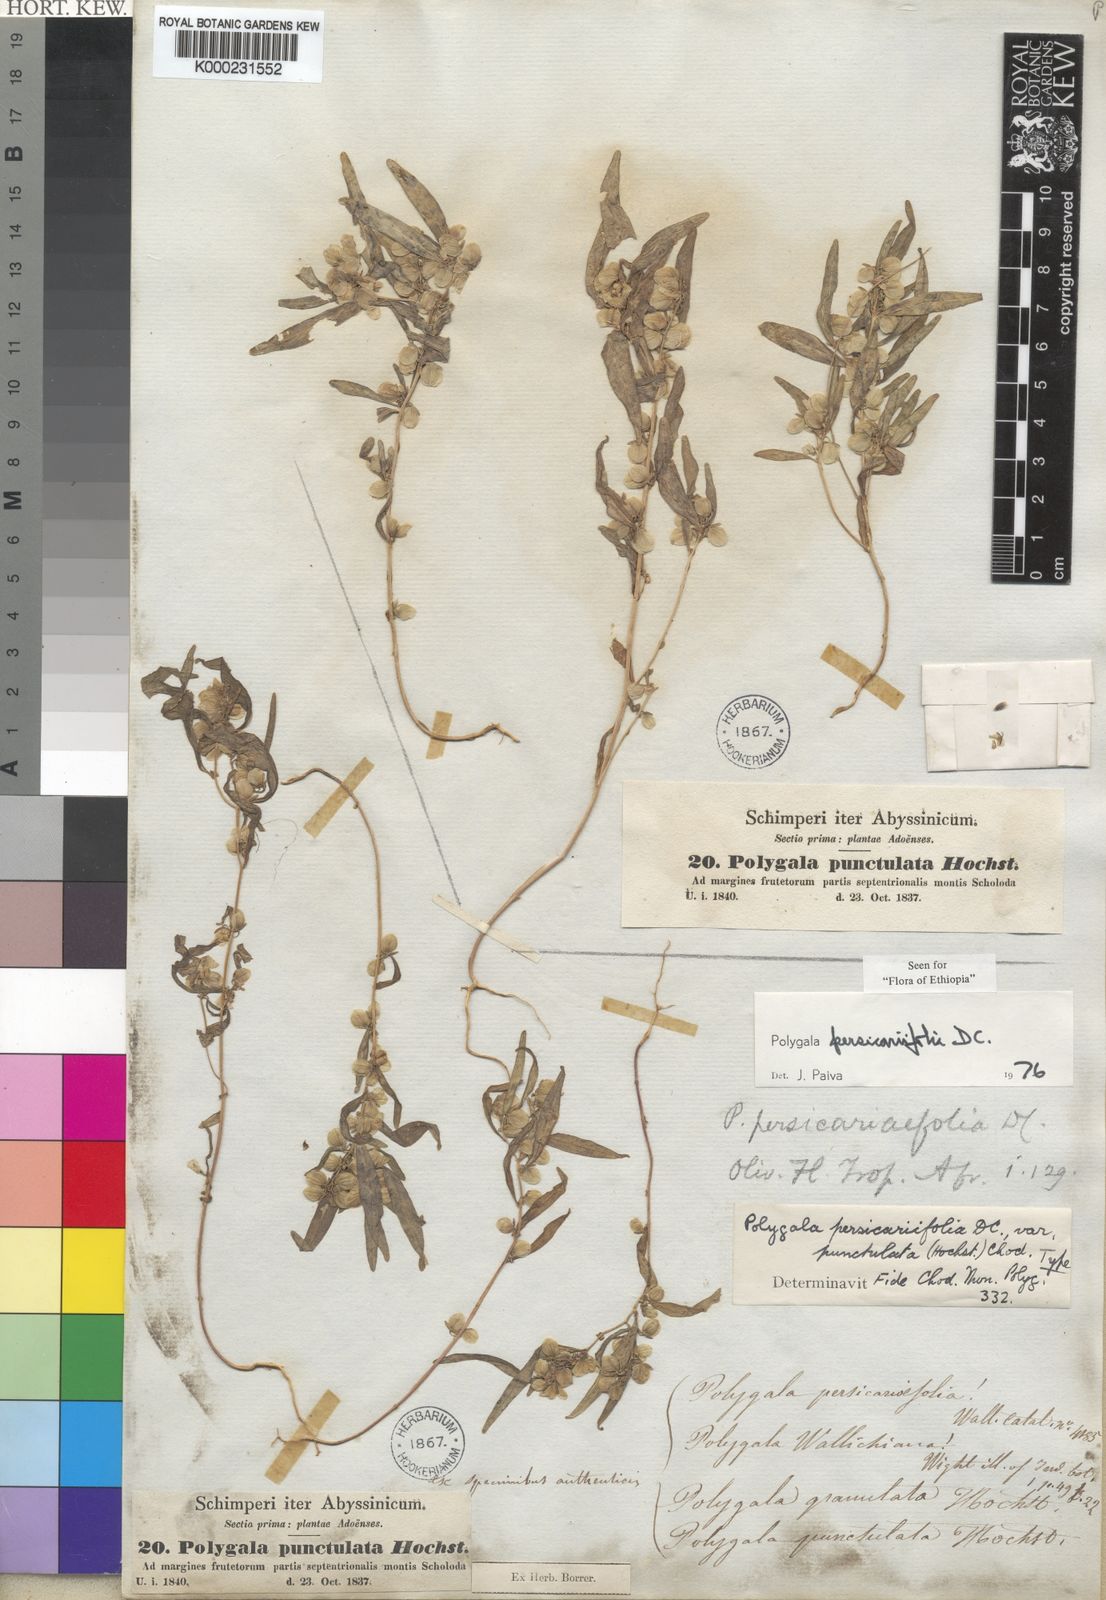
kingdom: Plantae
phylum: Tracheophyta
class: Magnoliopsida
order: Fabales
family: Polygalaceae
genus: Polygala
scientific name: Polygala persicariifolia
